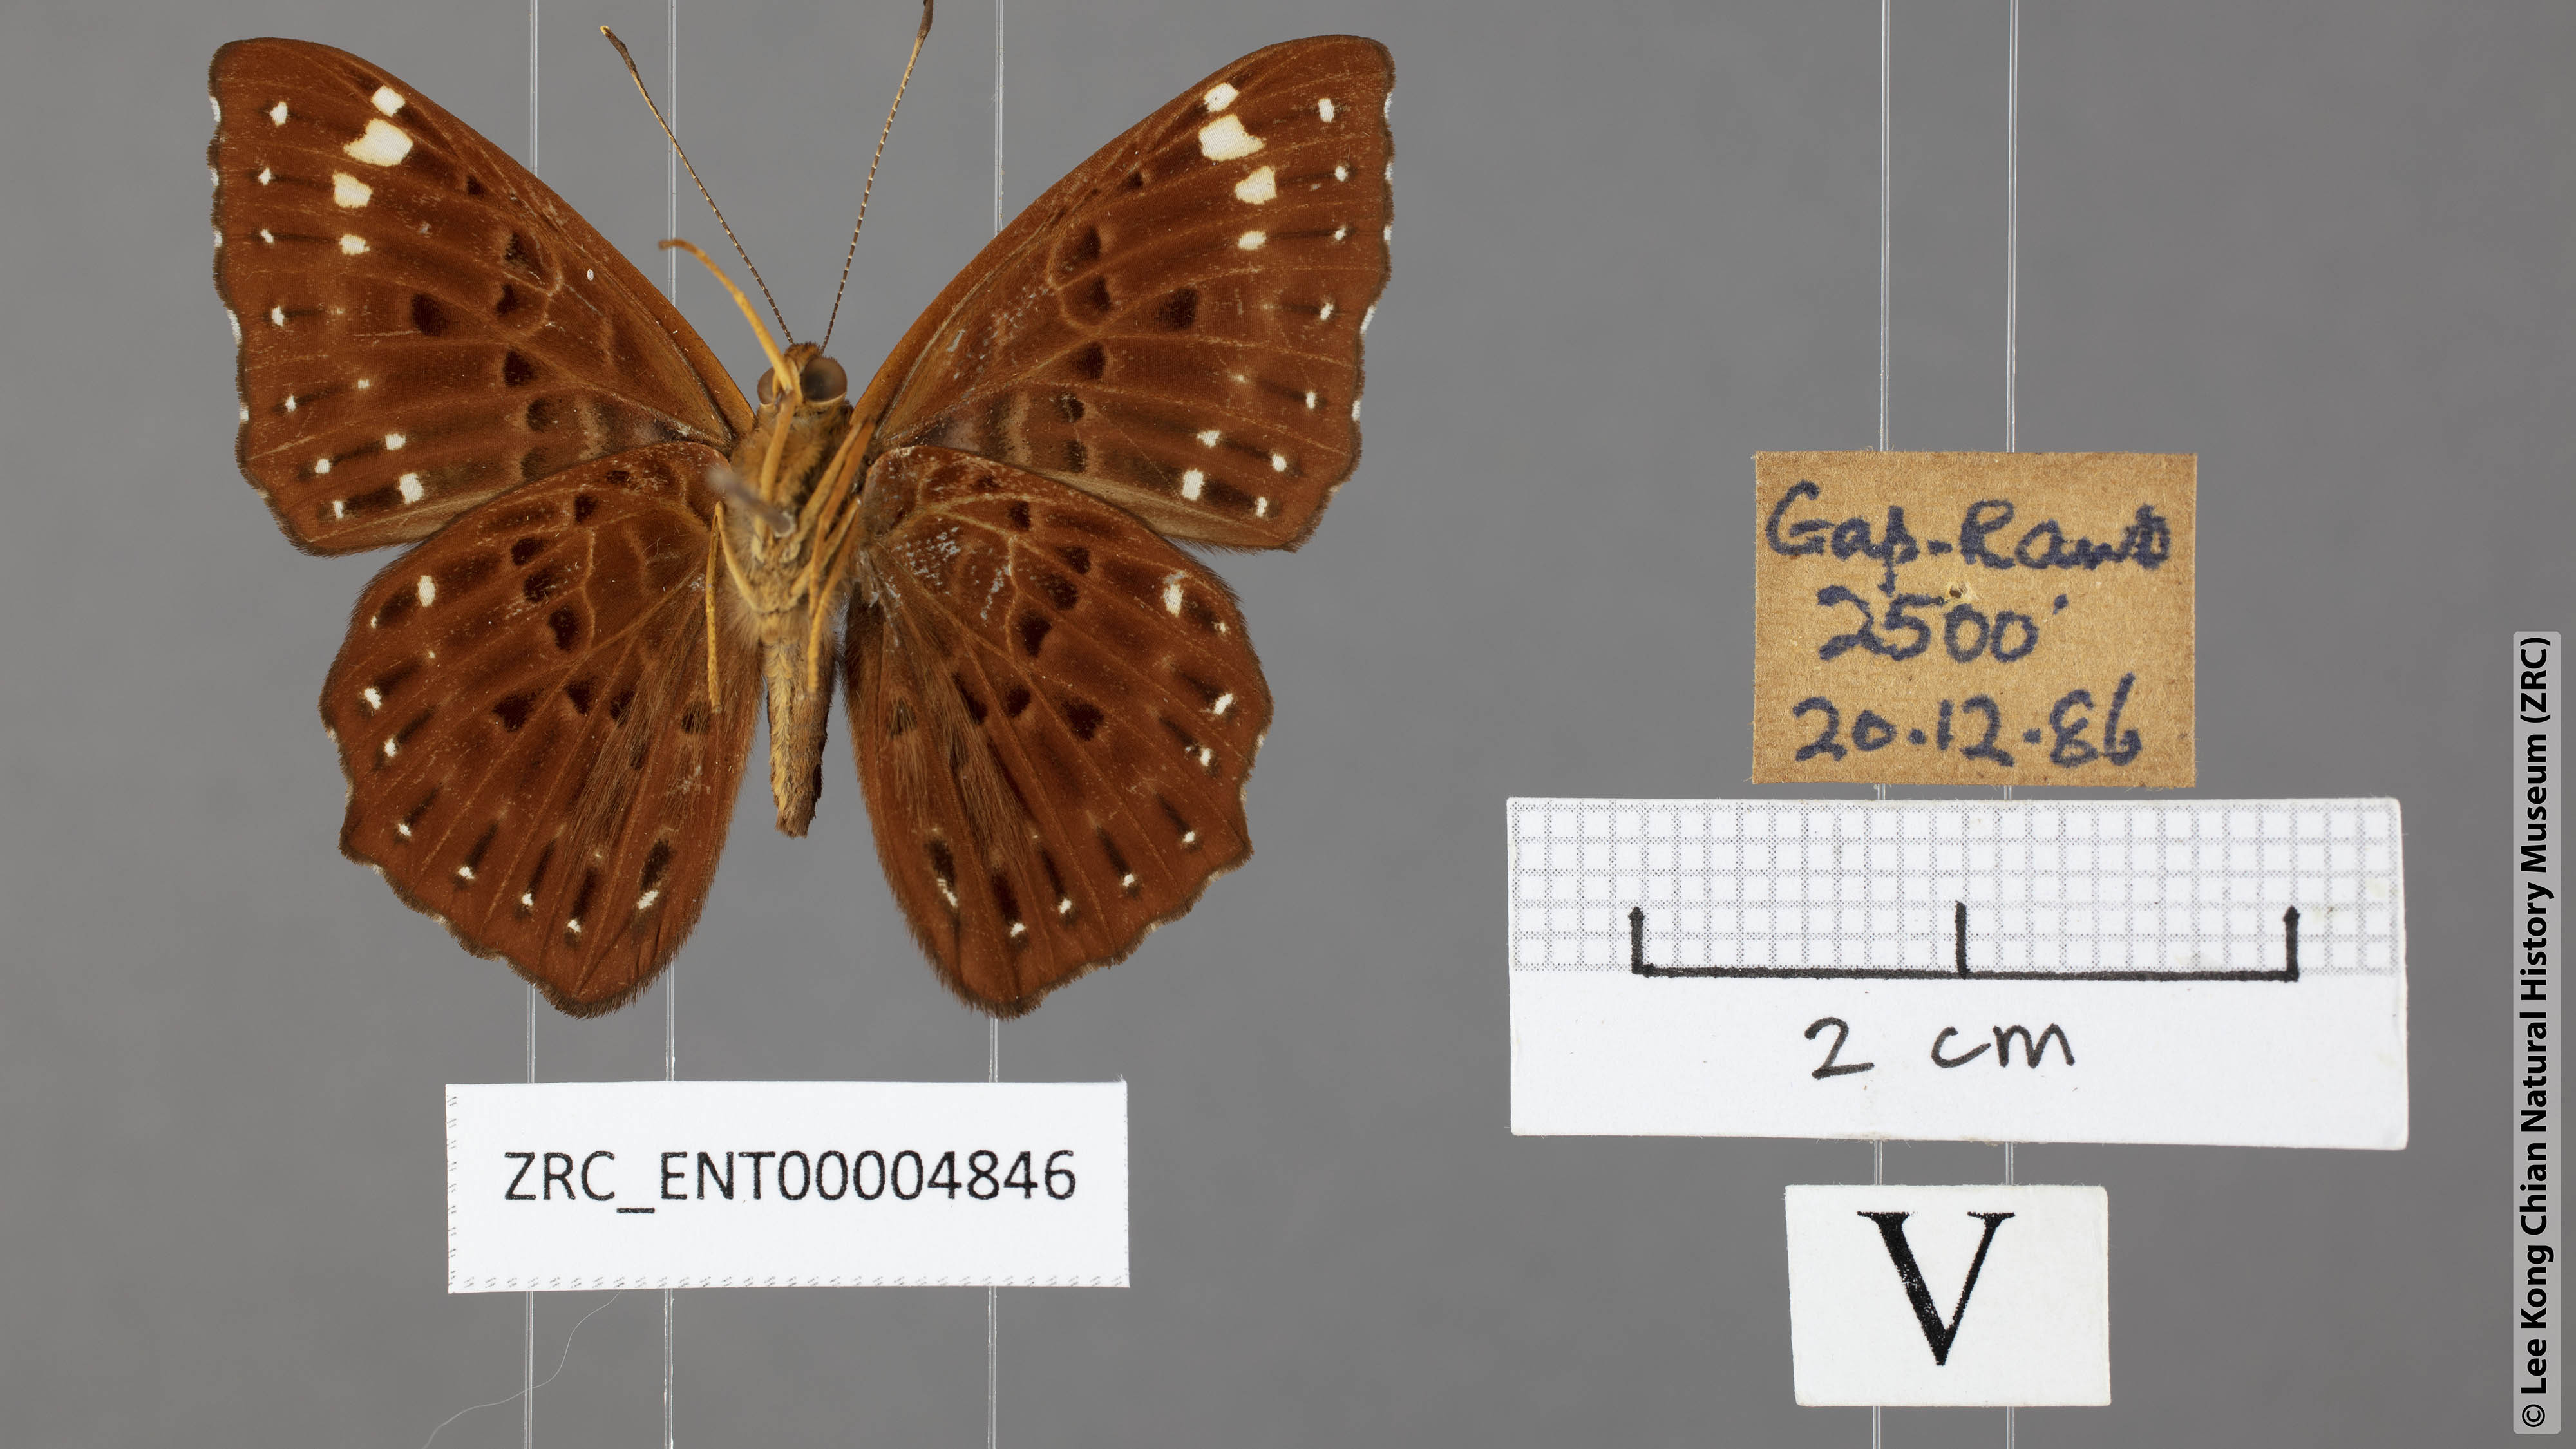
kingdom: Animalia
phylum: Arthropoda
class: Insecta
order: Lepidoptera
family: Riodinidae
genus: Zemeros
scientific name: Zemeros flegyas
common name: Punchinello
